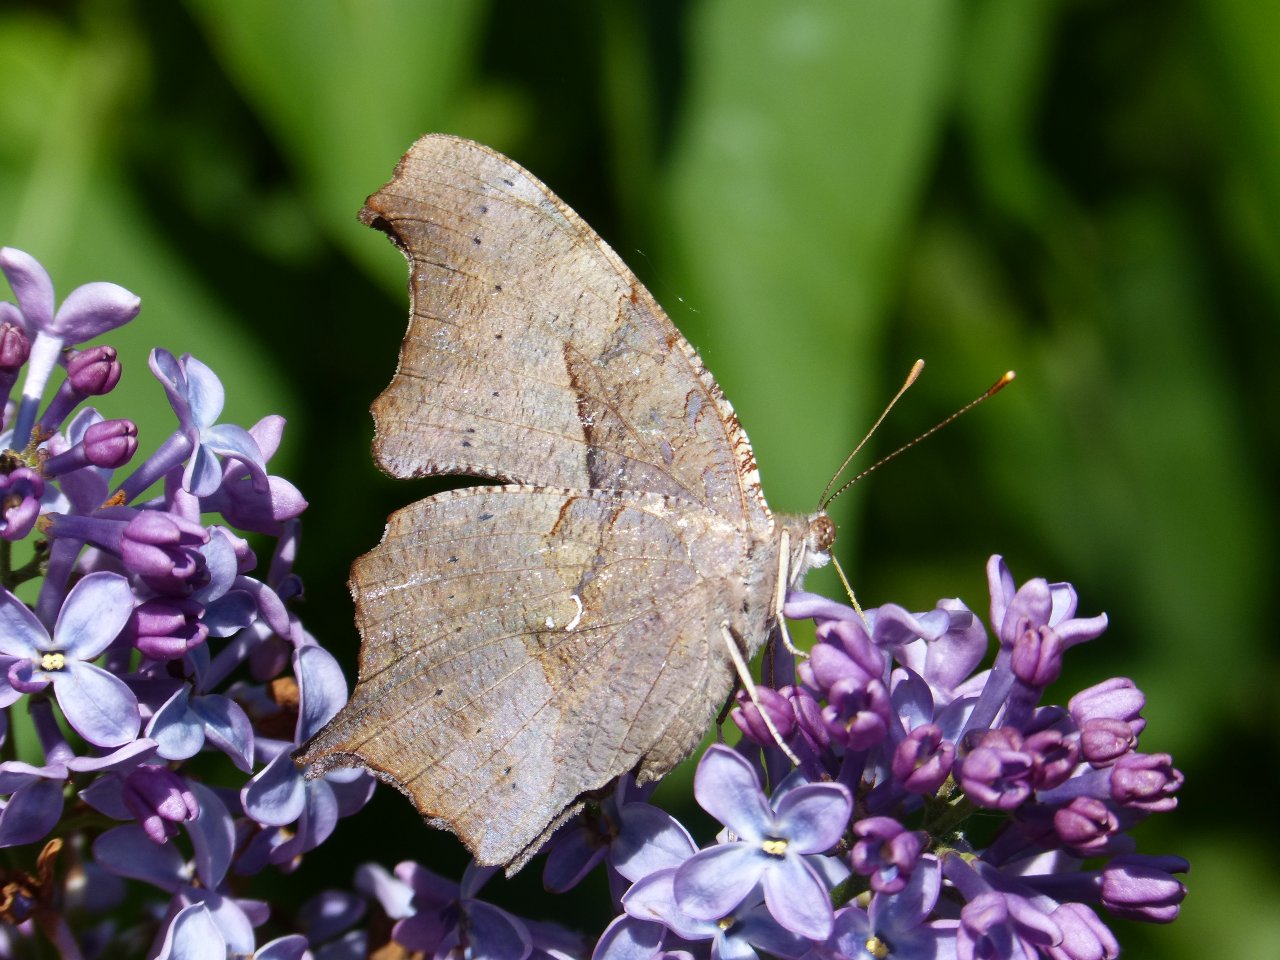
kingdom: Animalia
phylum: Arthropoda
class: Insecta
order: Lepidoptera
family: Nymphalidae
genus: Polygonia
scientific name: Polygonia interrogationis
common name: Question Mark
